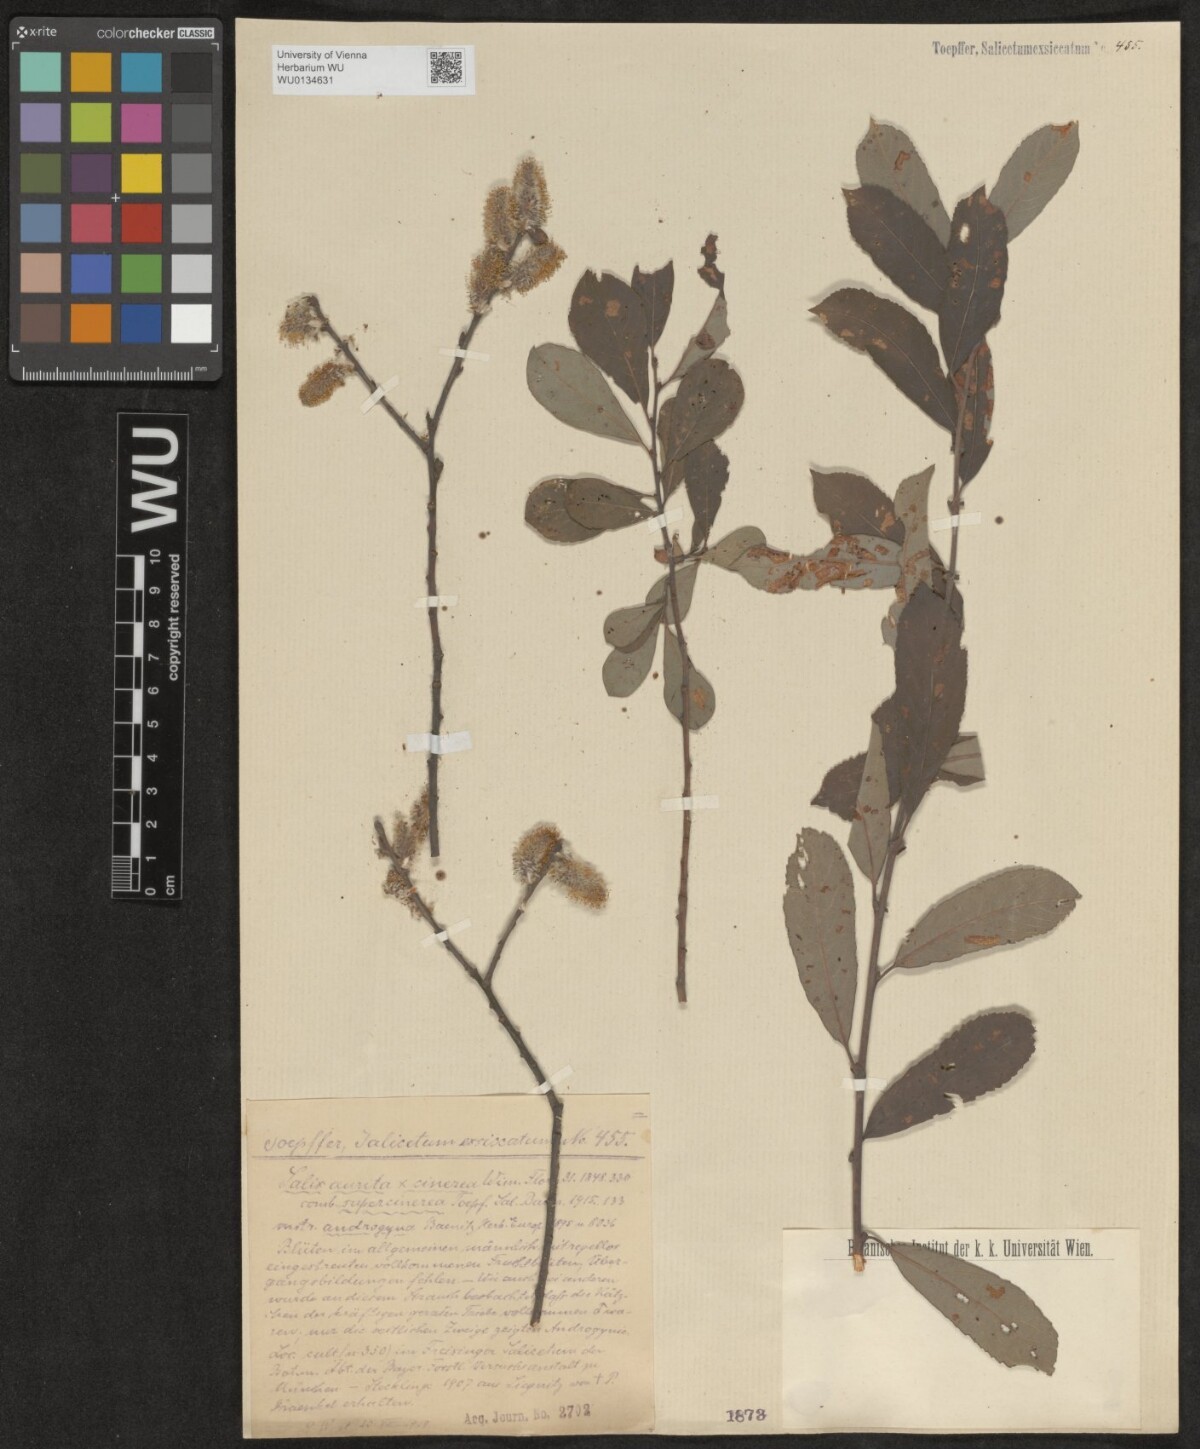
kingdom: Plantae
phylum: Tracheophyta
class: Magnoliopsida
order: Malpighiales
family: Salicaceae
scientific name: Salicaceae
